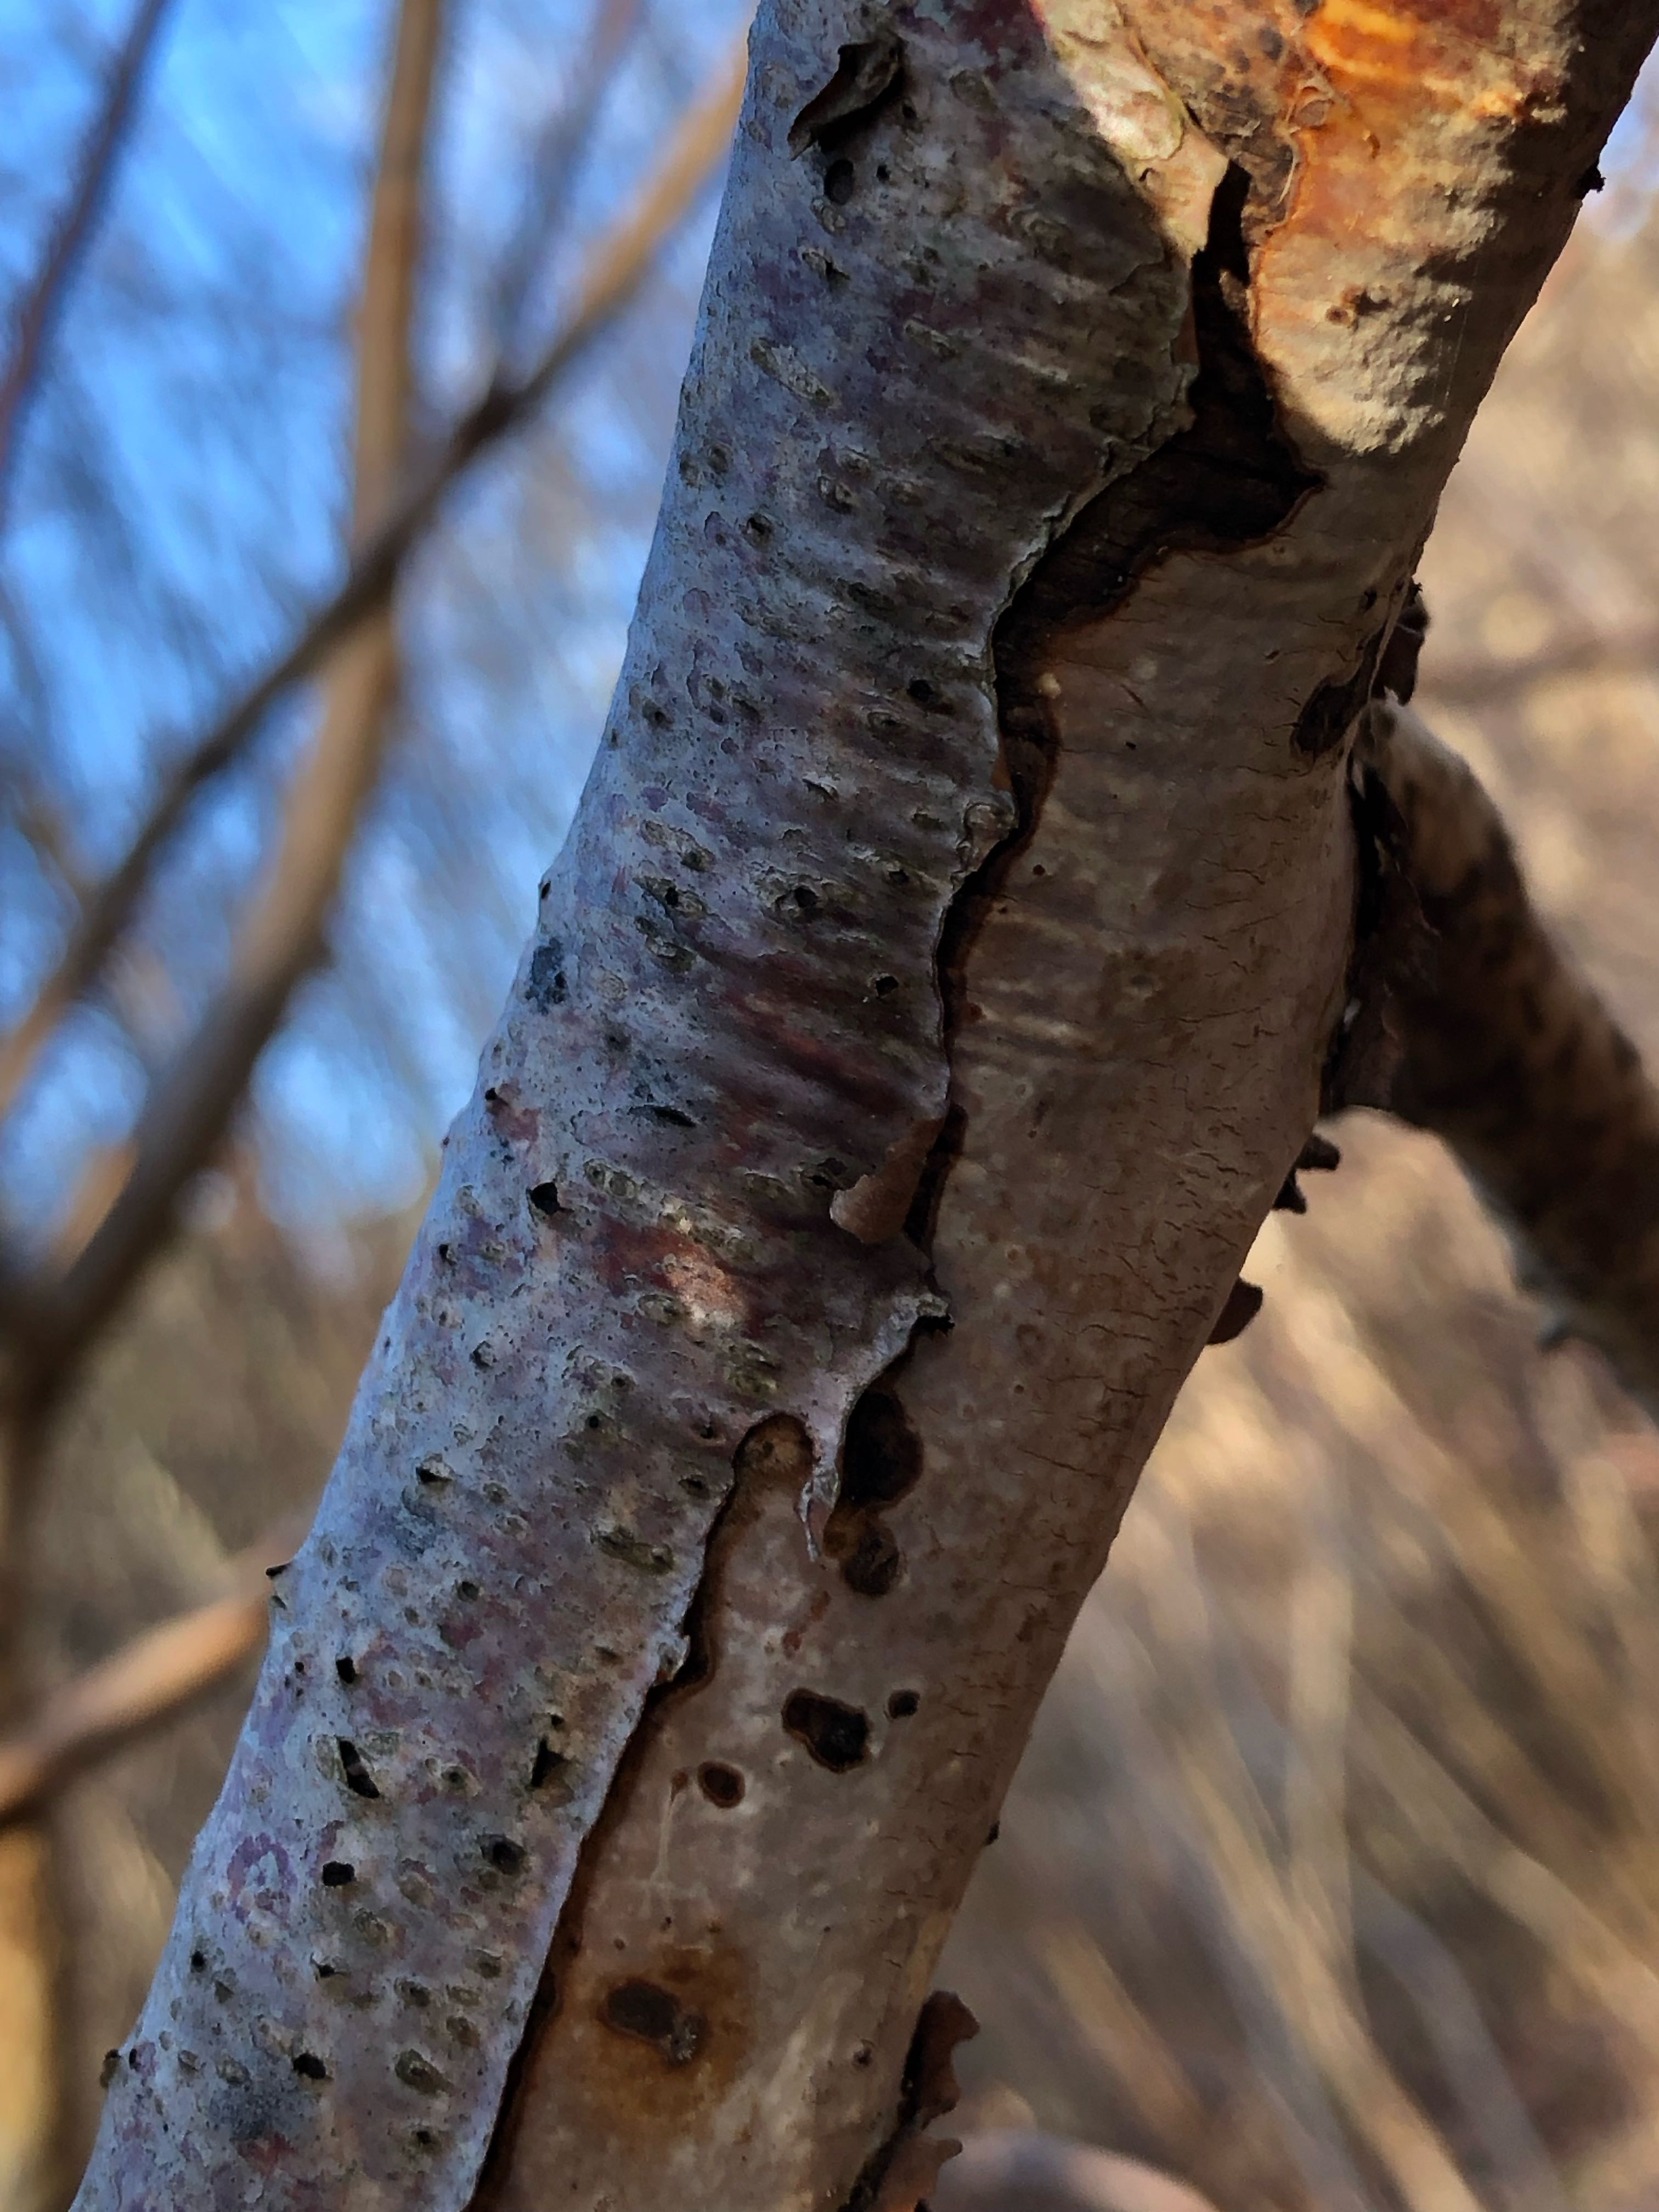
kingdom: Fungi
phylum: Basidiomycota
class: Agaricomycetes
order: Corticiales
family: Vuilleminiaceae
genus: Vuilleminia
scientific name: Vuilleminia coryli
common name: hassel-barksprænger
